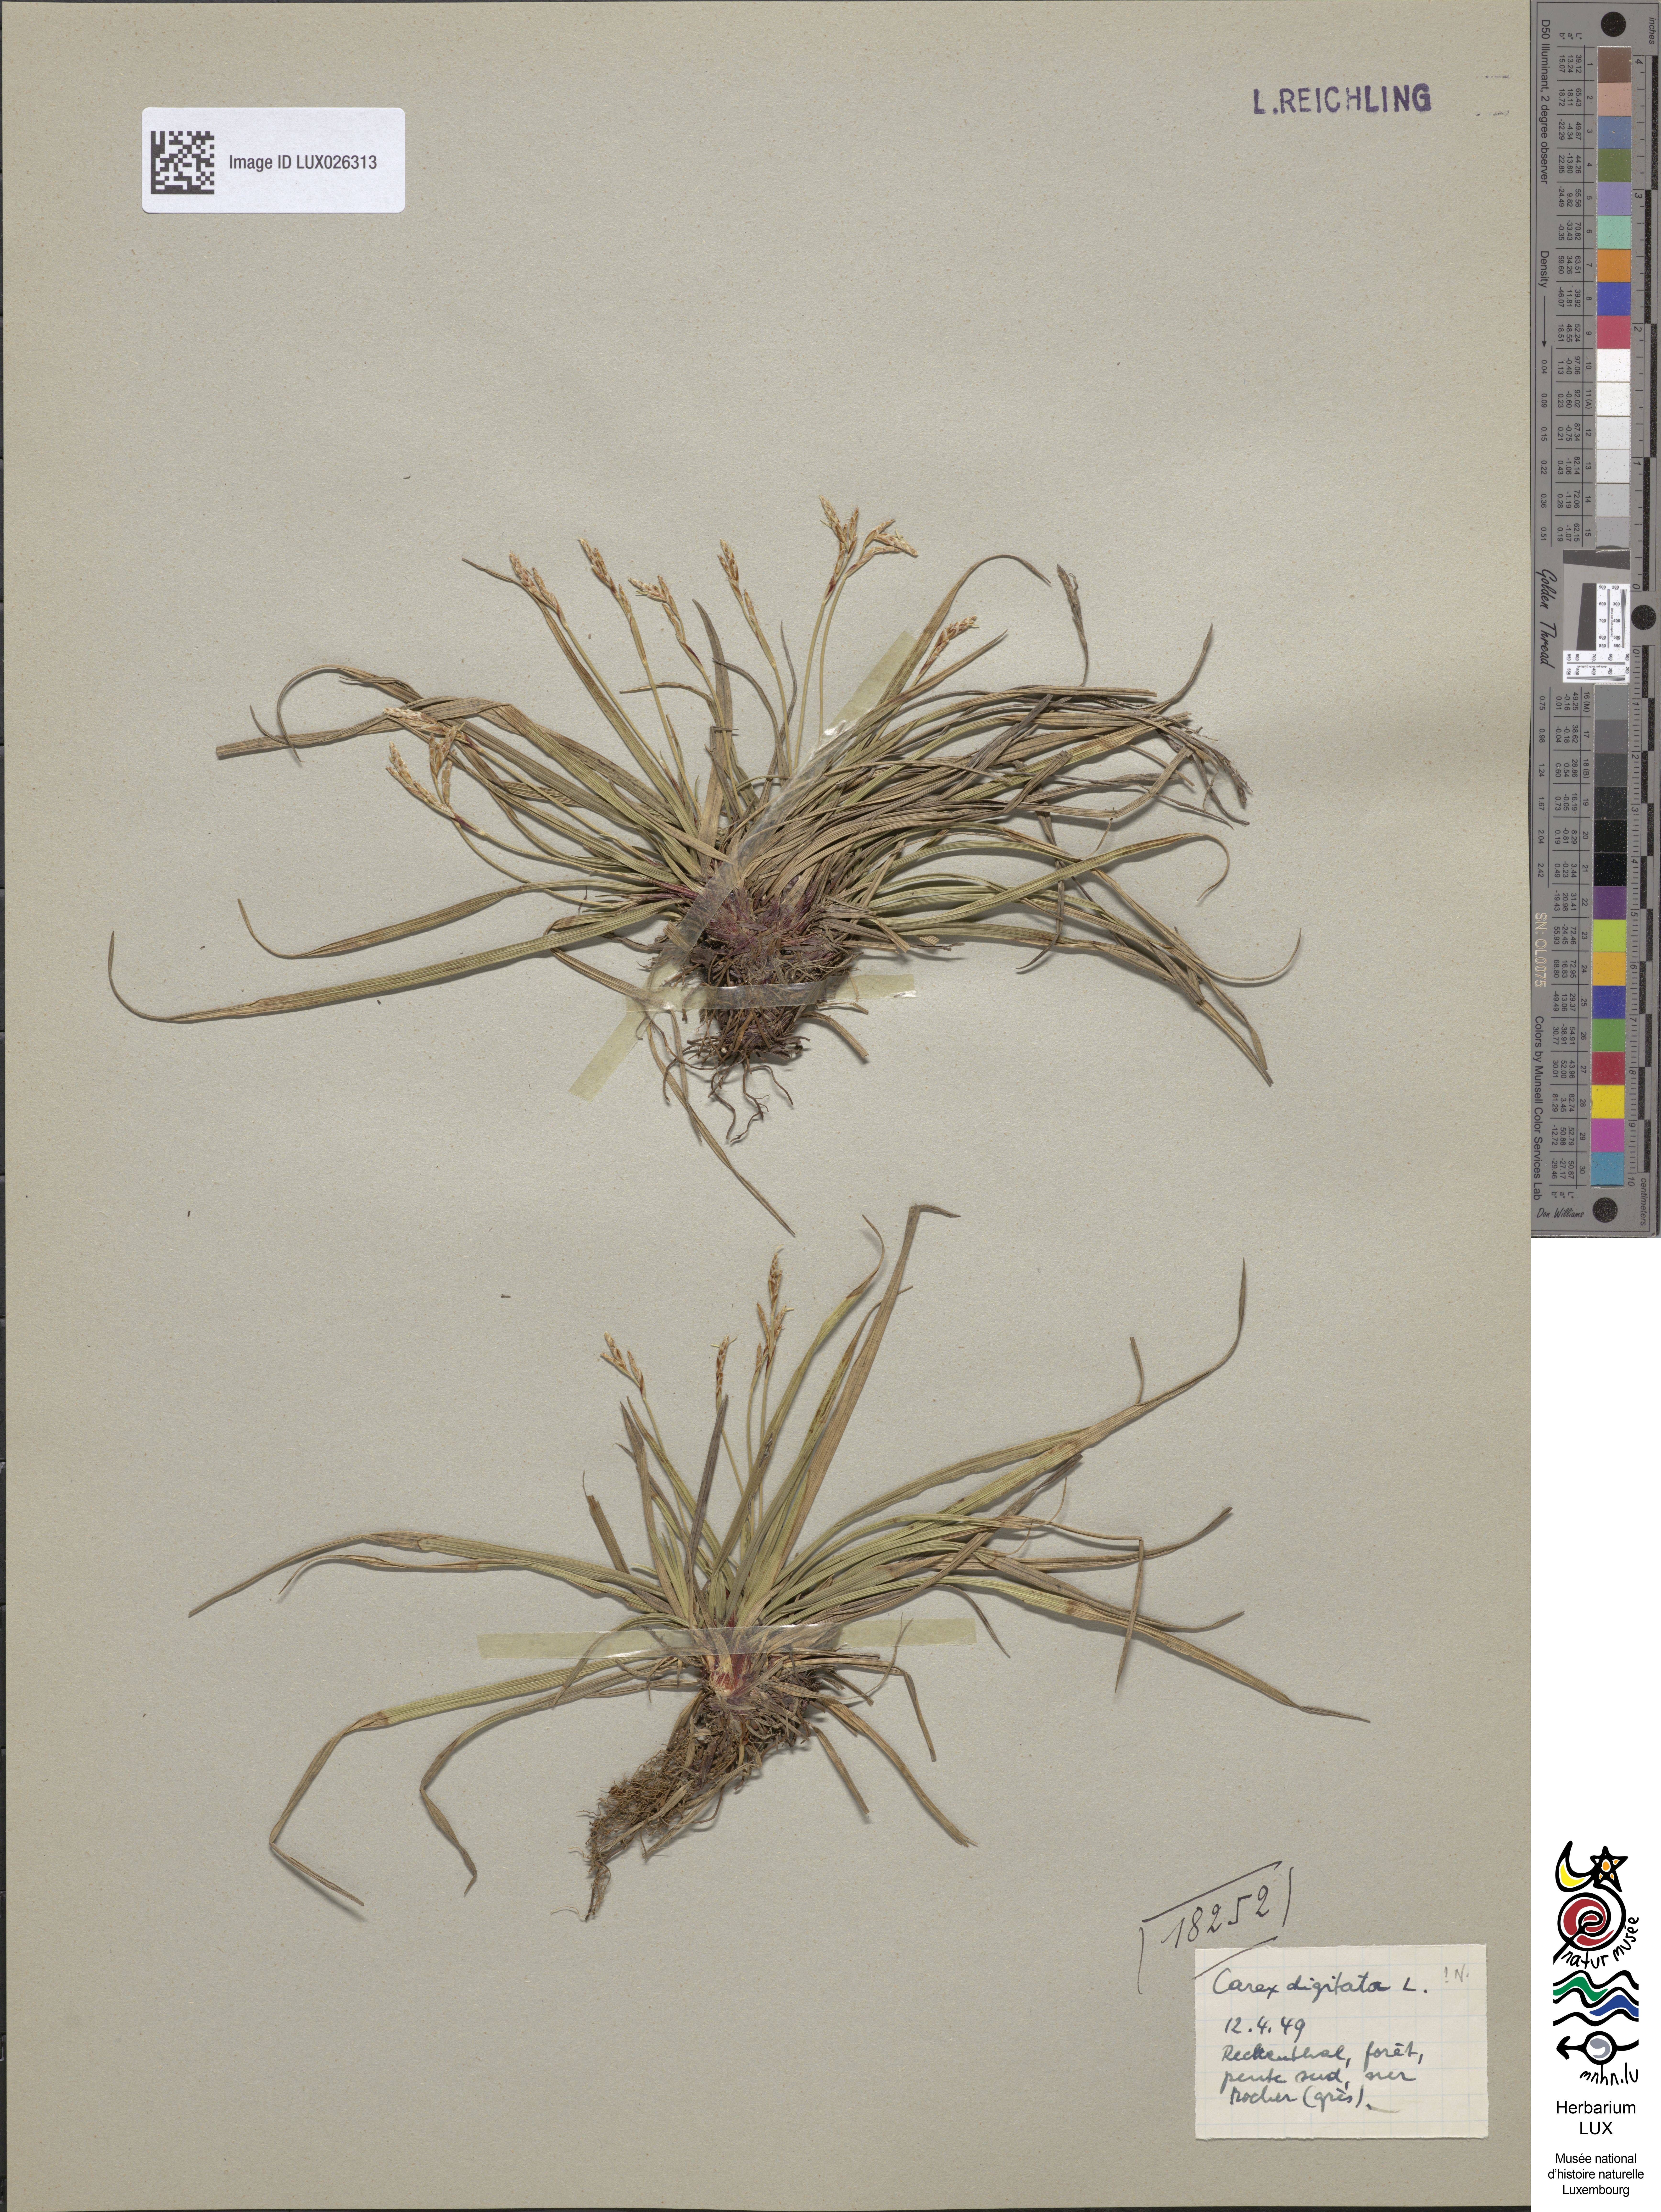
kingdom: Plantae
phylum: Tracheophyta
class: Liliopsida
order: Poales
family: Cyperaceae
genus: Carex
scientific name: Carex digitata
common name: Fingered sedge
